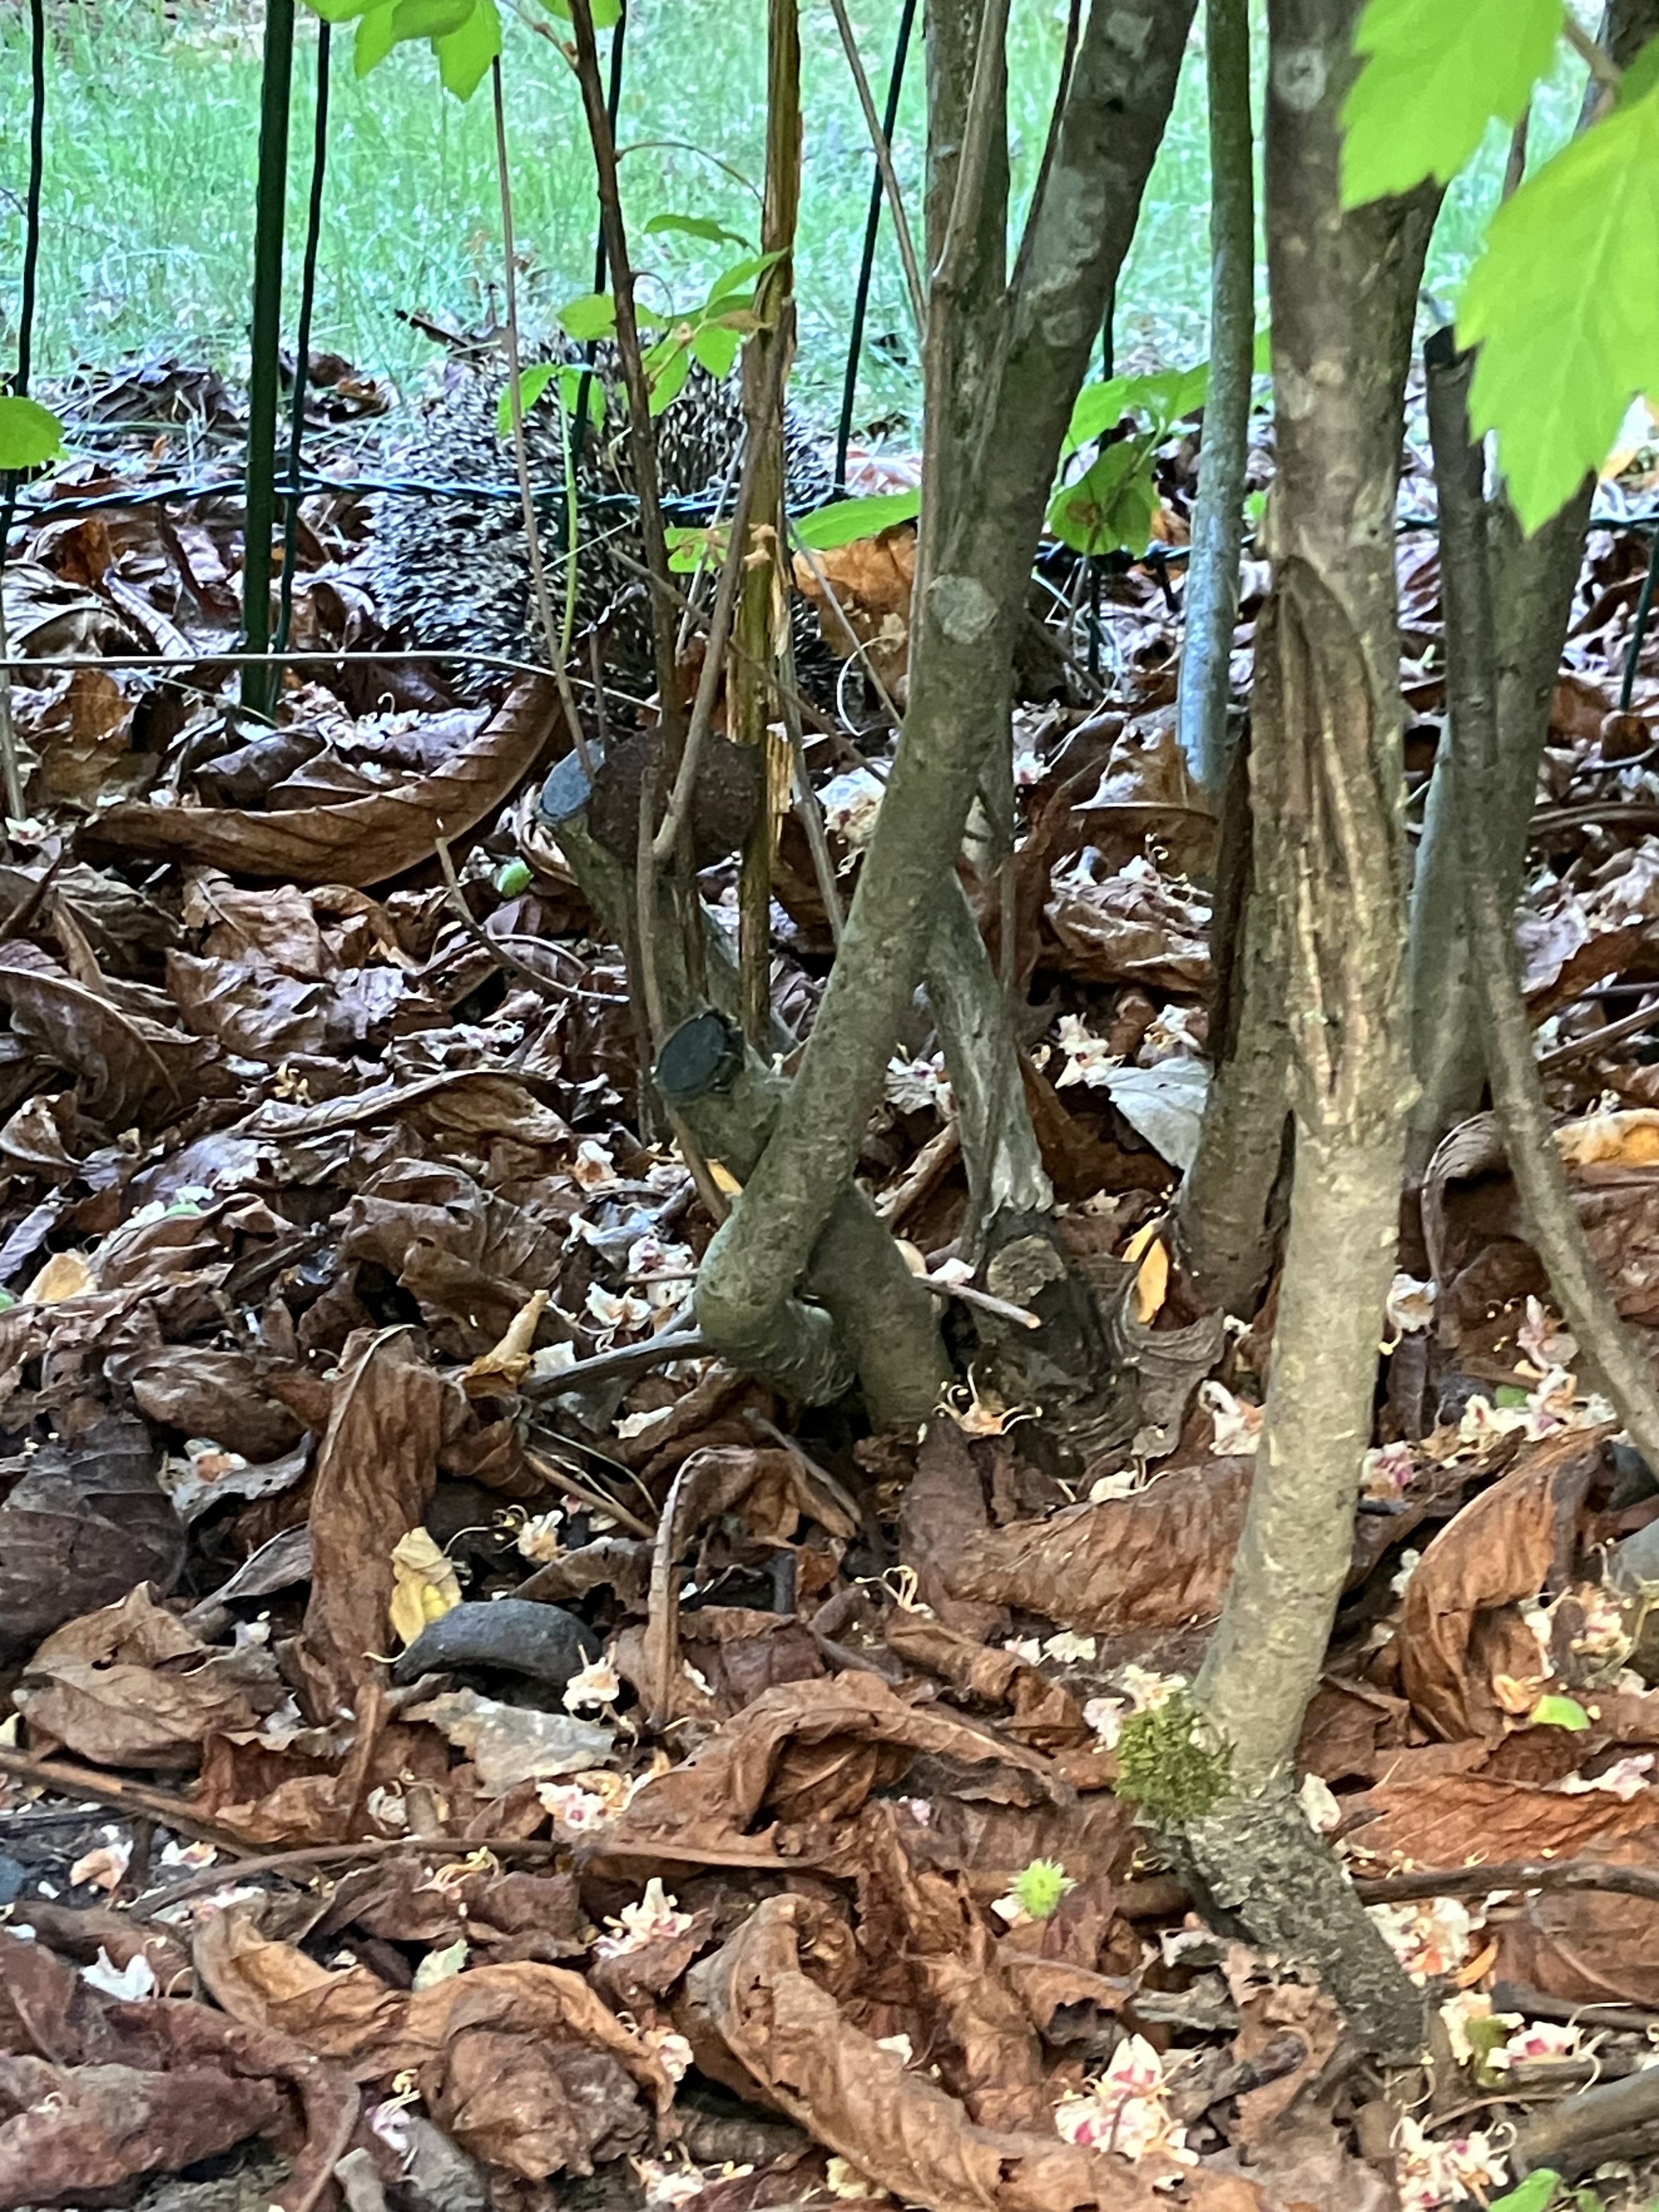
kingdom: Animalia
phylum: Chordata
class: Mammalia
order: Erinaceomorpha
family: Erinaceidae
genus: Erinaceus
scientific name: Erinaceus europaeus
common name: West european hedgehog
